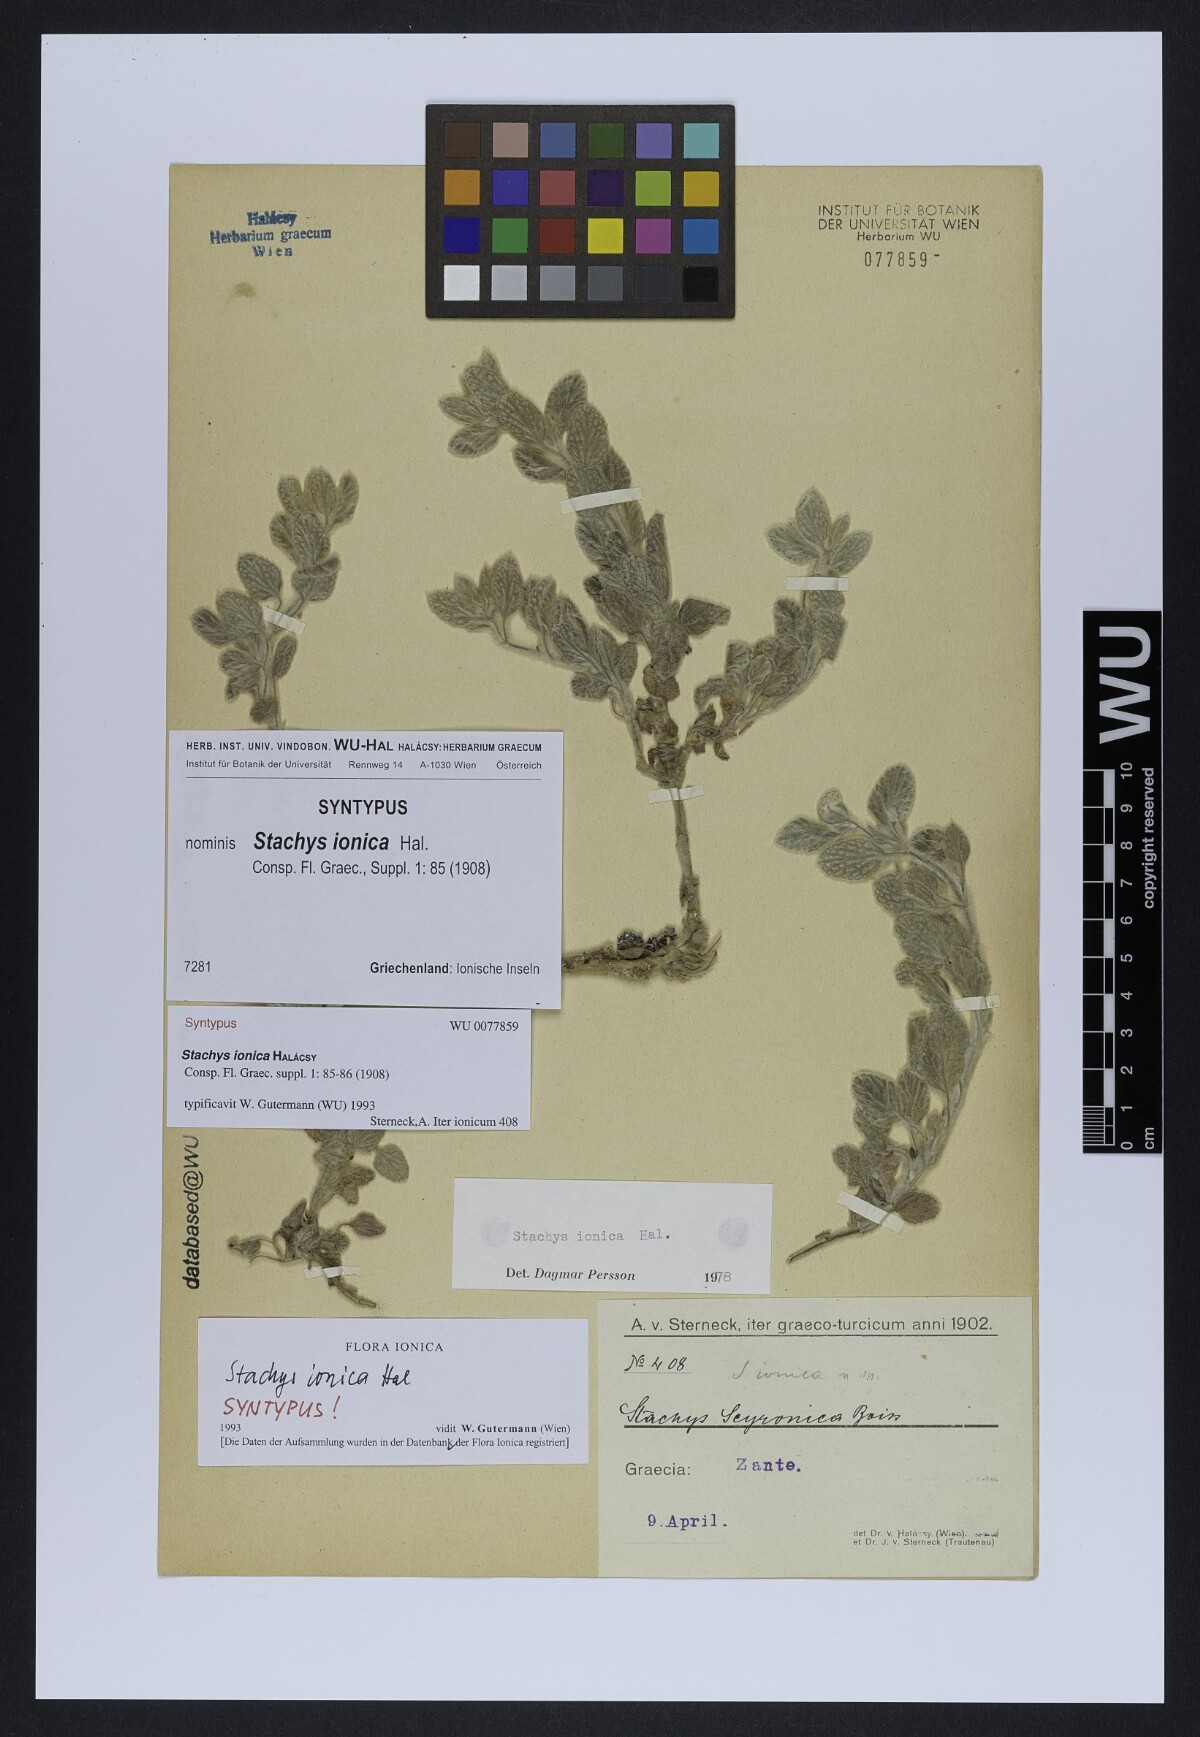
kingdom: Plantae
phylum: Tracheophyta
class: Magnoliopsida
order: Lamiales
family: Lamiaceae
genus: Stachys
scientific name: Stachys ionica
